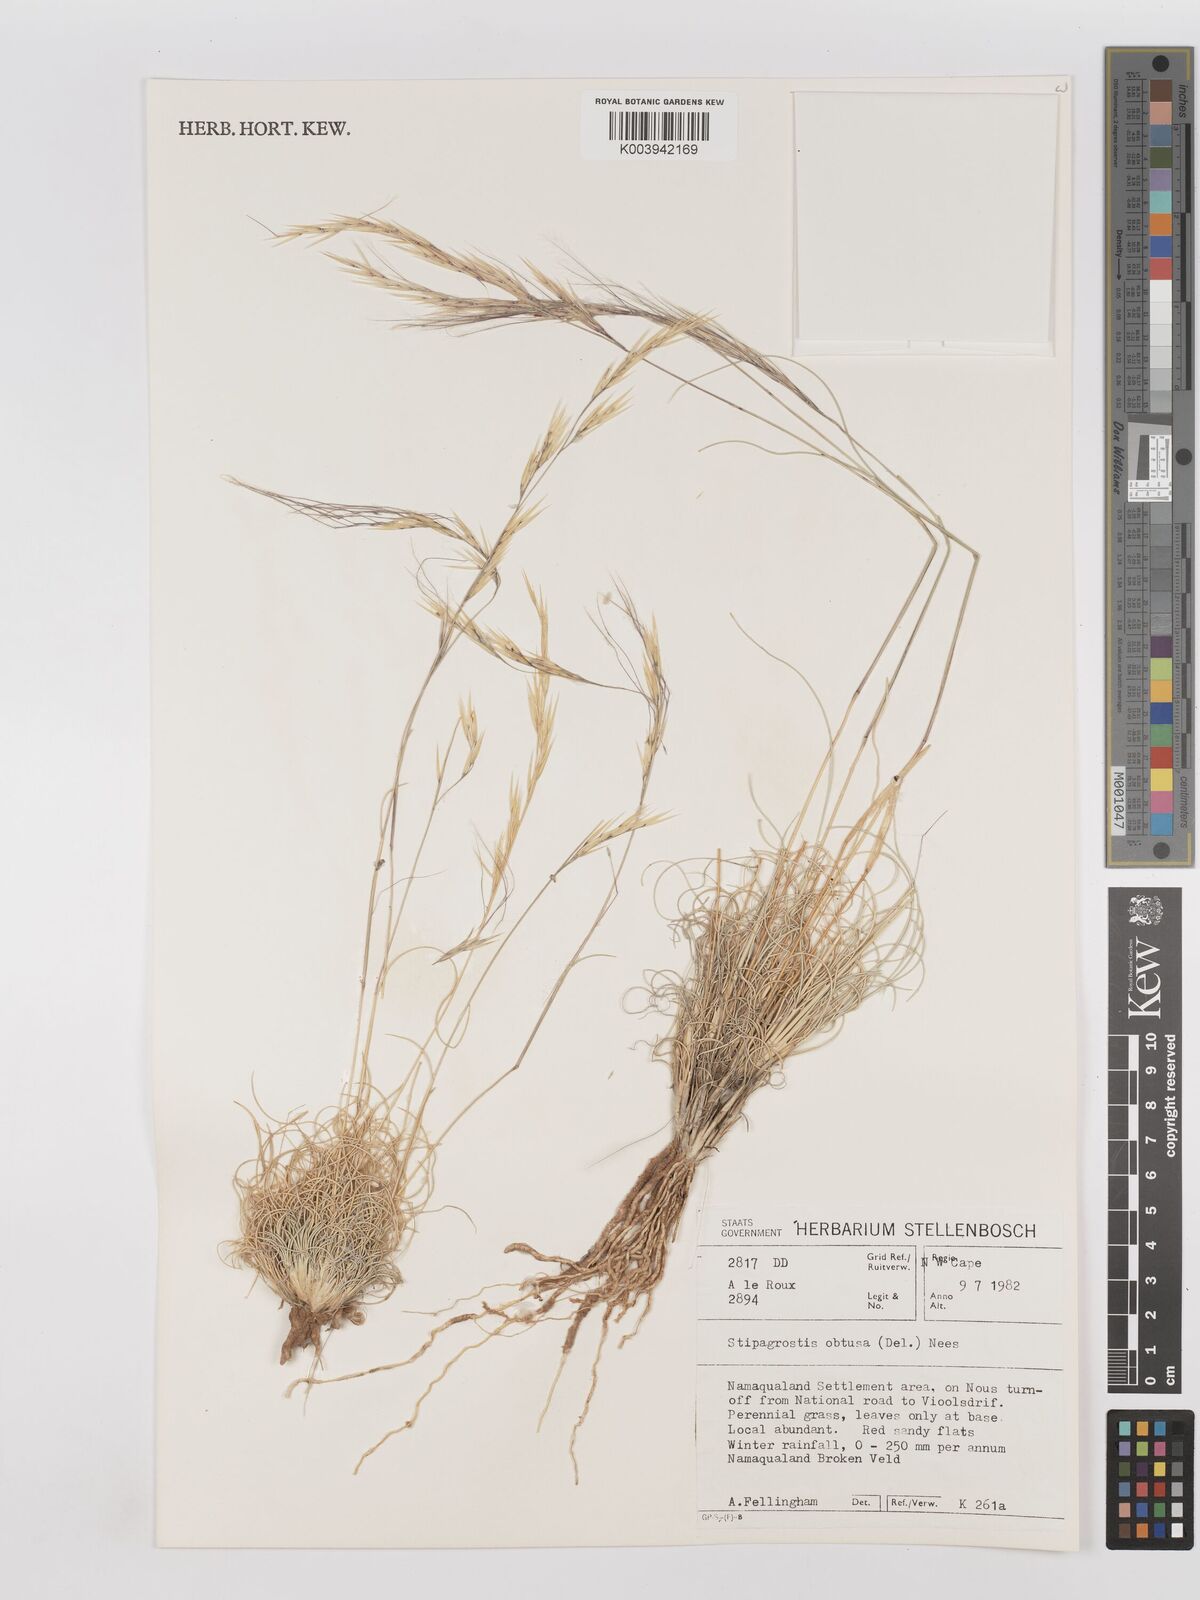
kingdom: Plantae
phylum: Tracheophyta
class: Liliopsida
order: Poales
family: Poaceae
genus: Stipagrostis
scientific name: Stipagrostis obtusa
